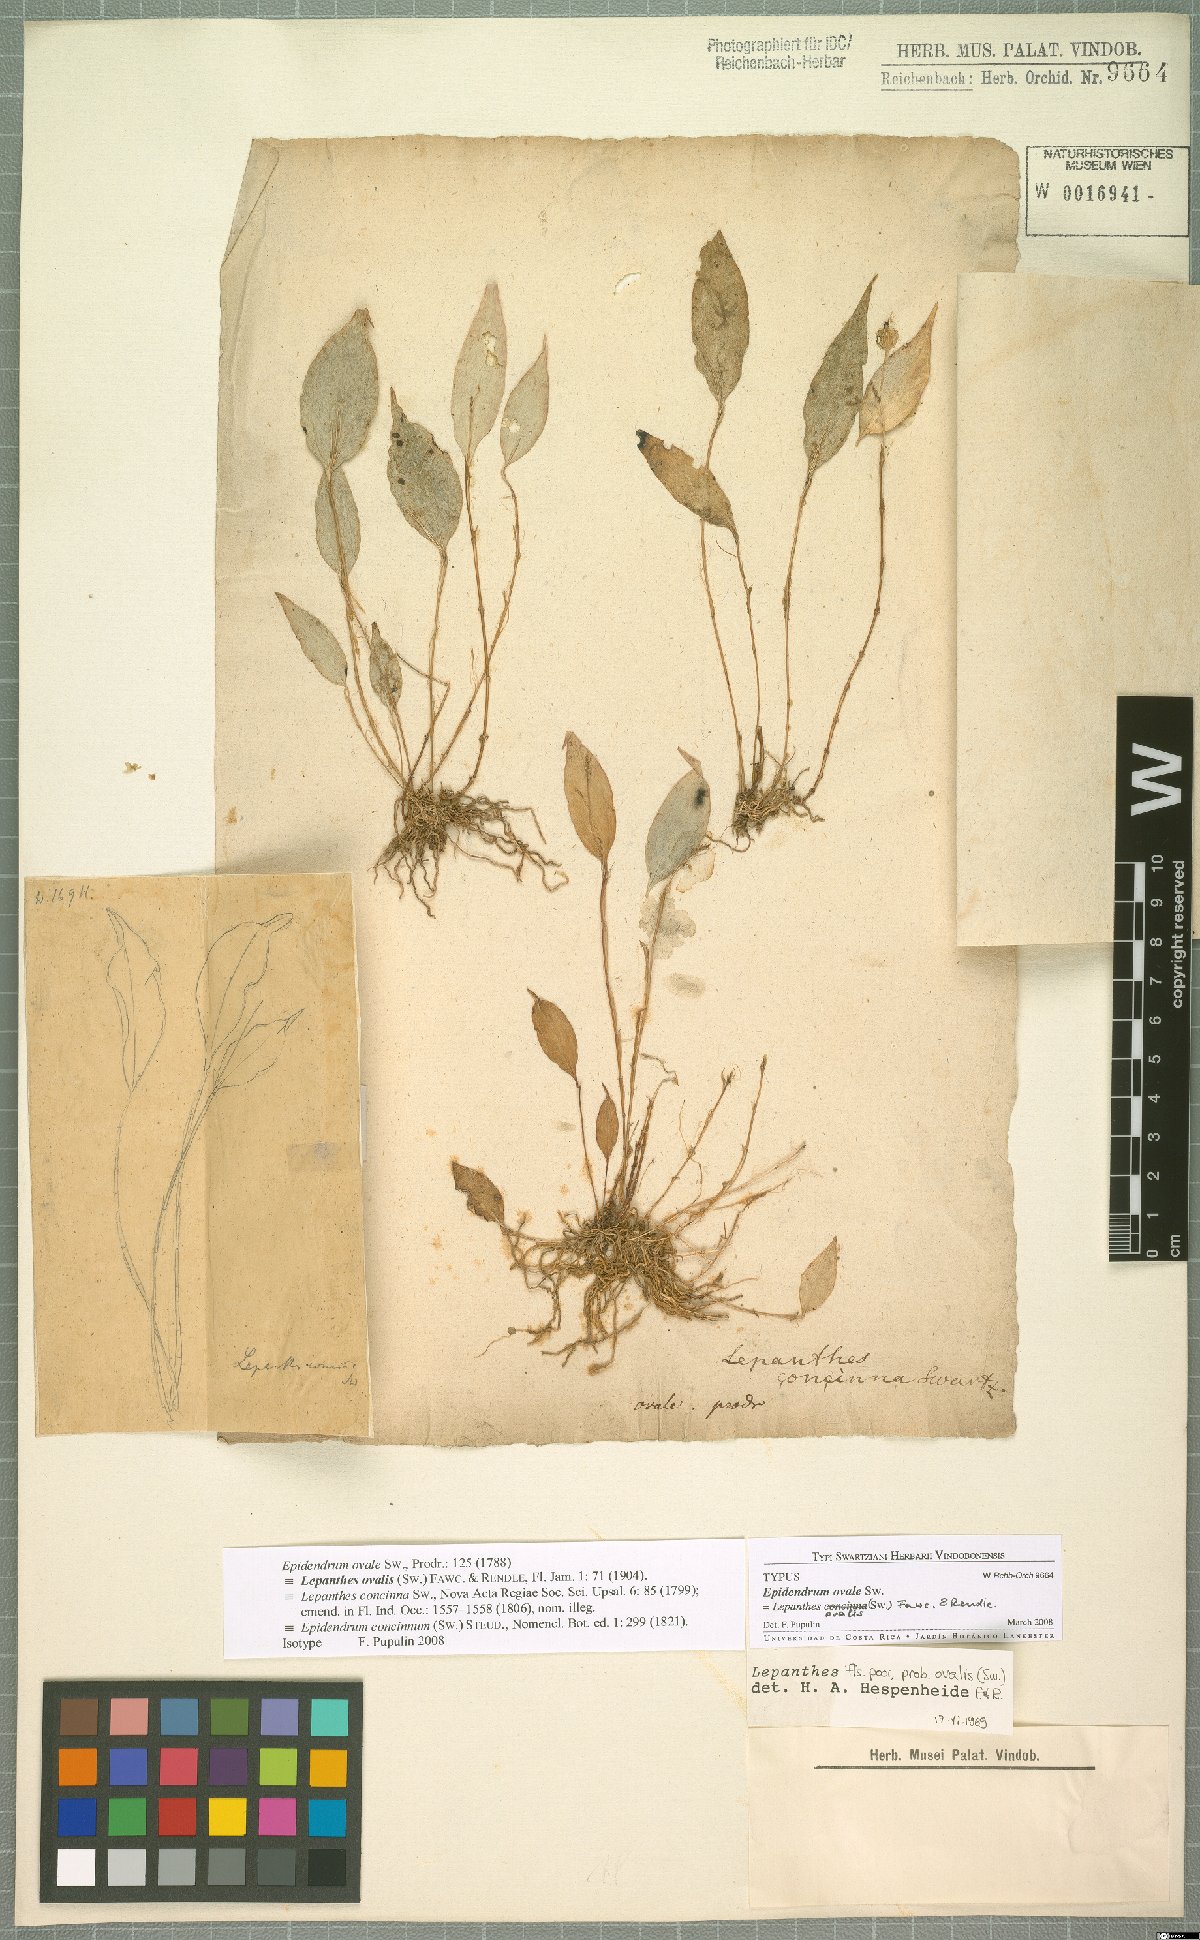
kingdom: Plantae
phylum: Tracheophyta
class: Liliopsida
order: Asparagales
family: Orchidaceae
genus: Lepanthes
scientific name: Lepanthes ovalis
